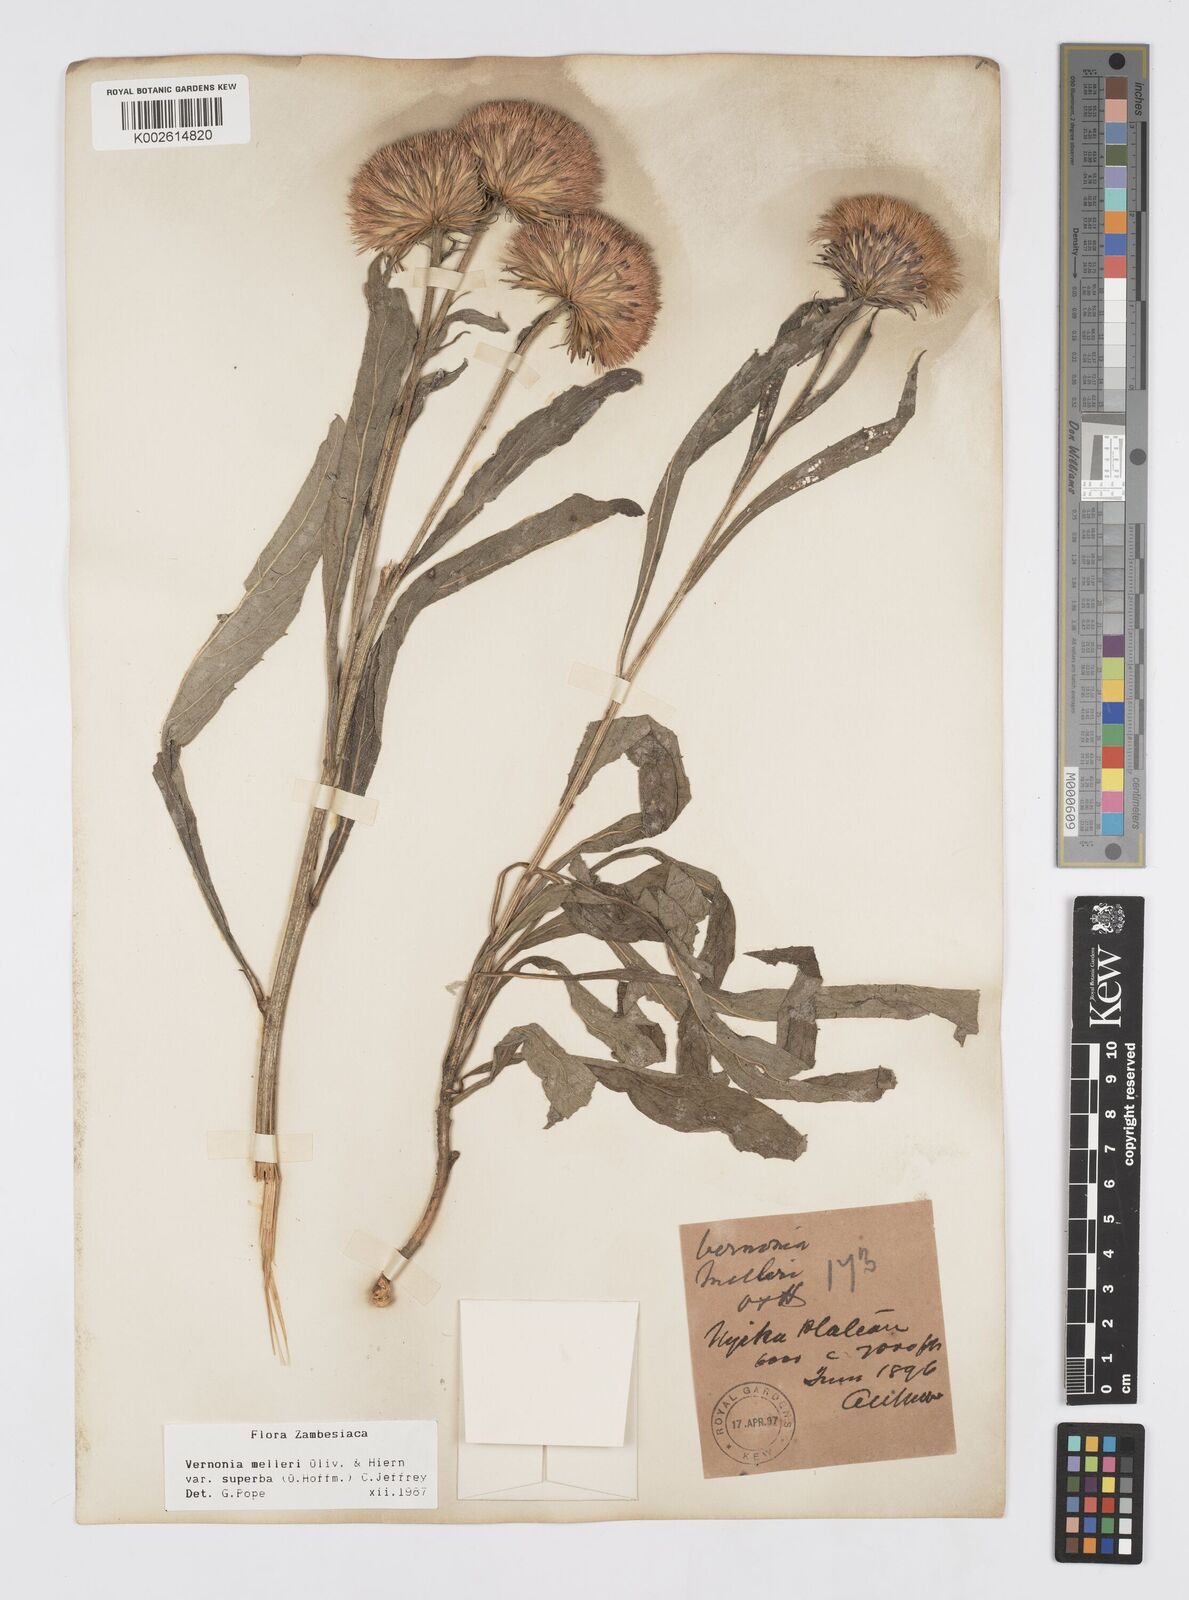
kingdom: Plantae
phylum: Tracheophyta
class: Magnoliopsida
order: Asterales
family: Asteraceae
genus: Linzia
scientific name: Linzia melleri
